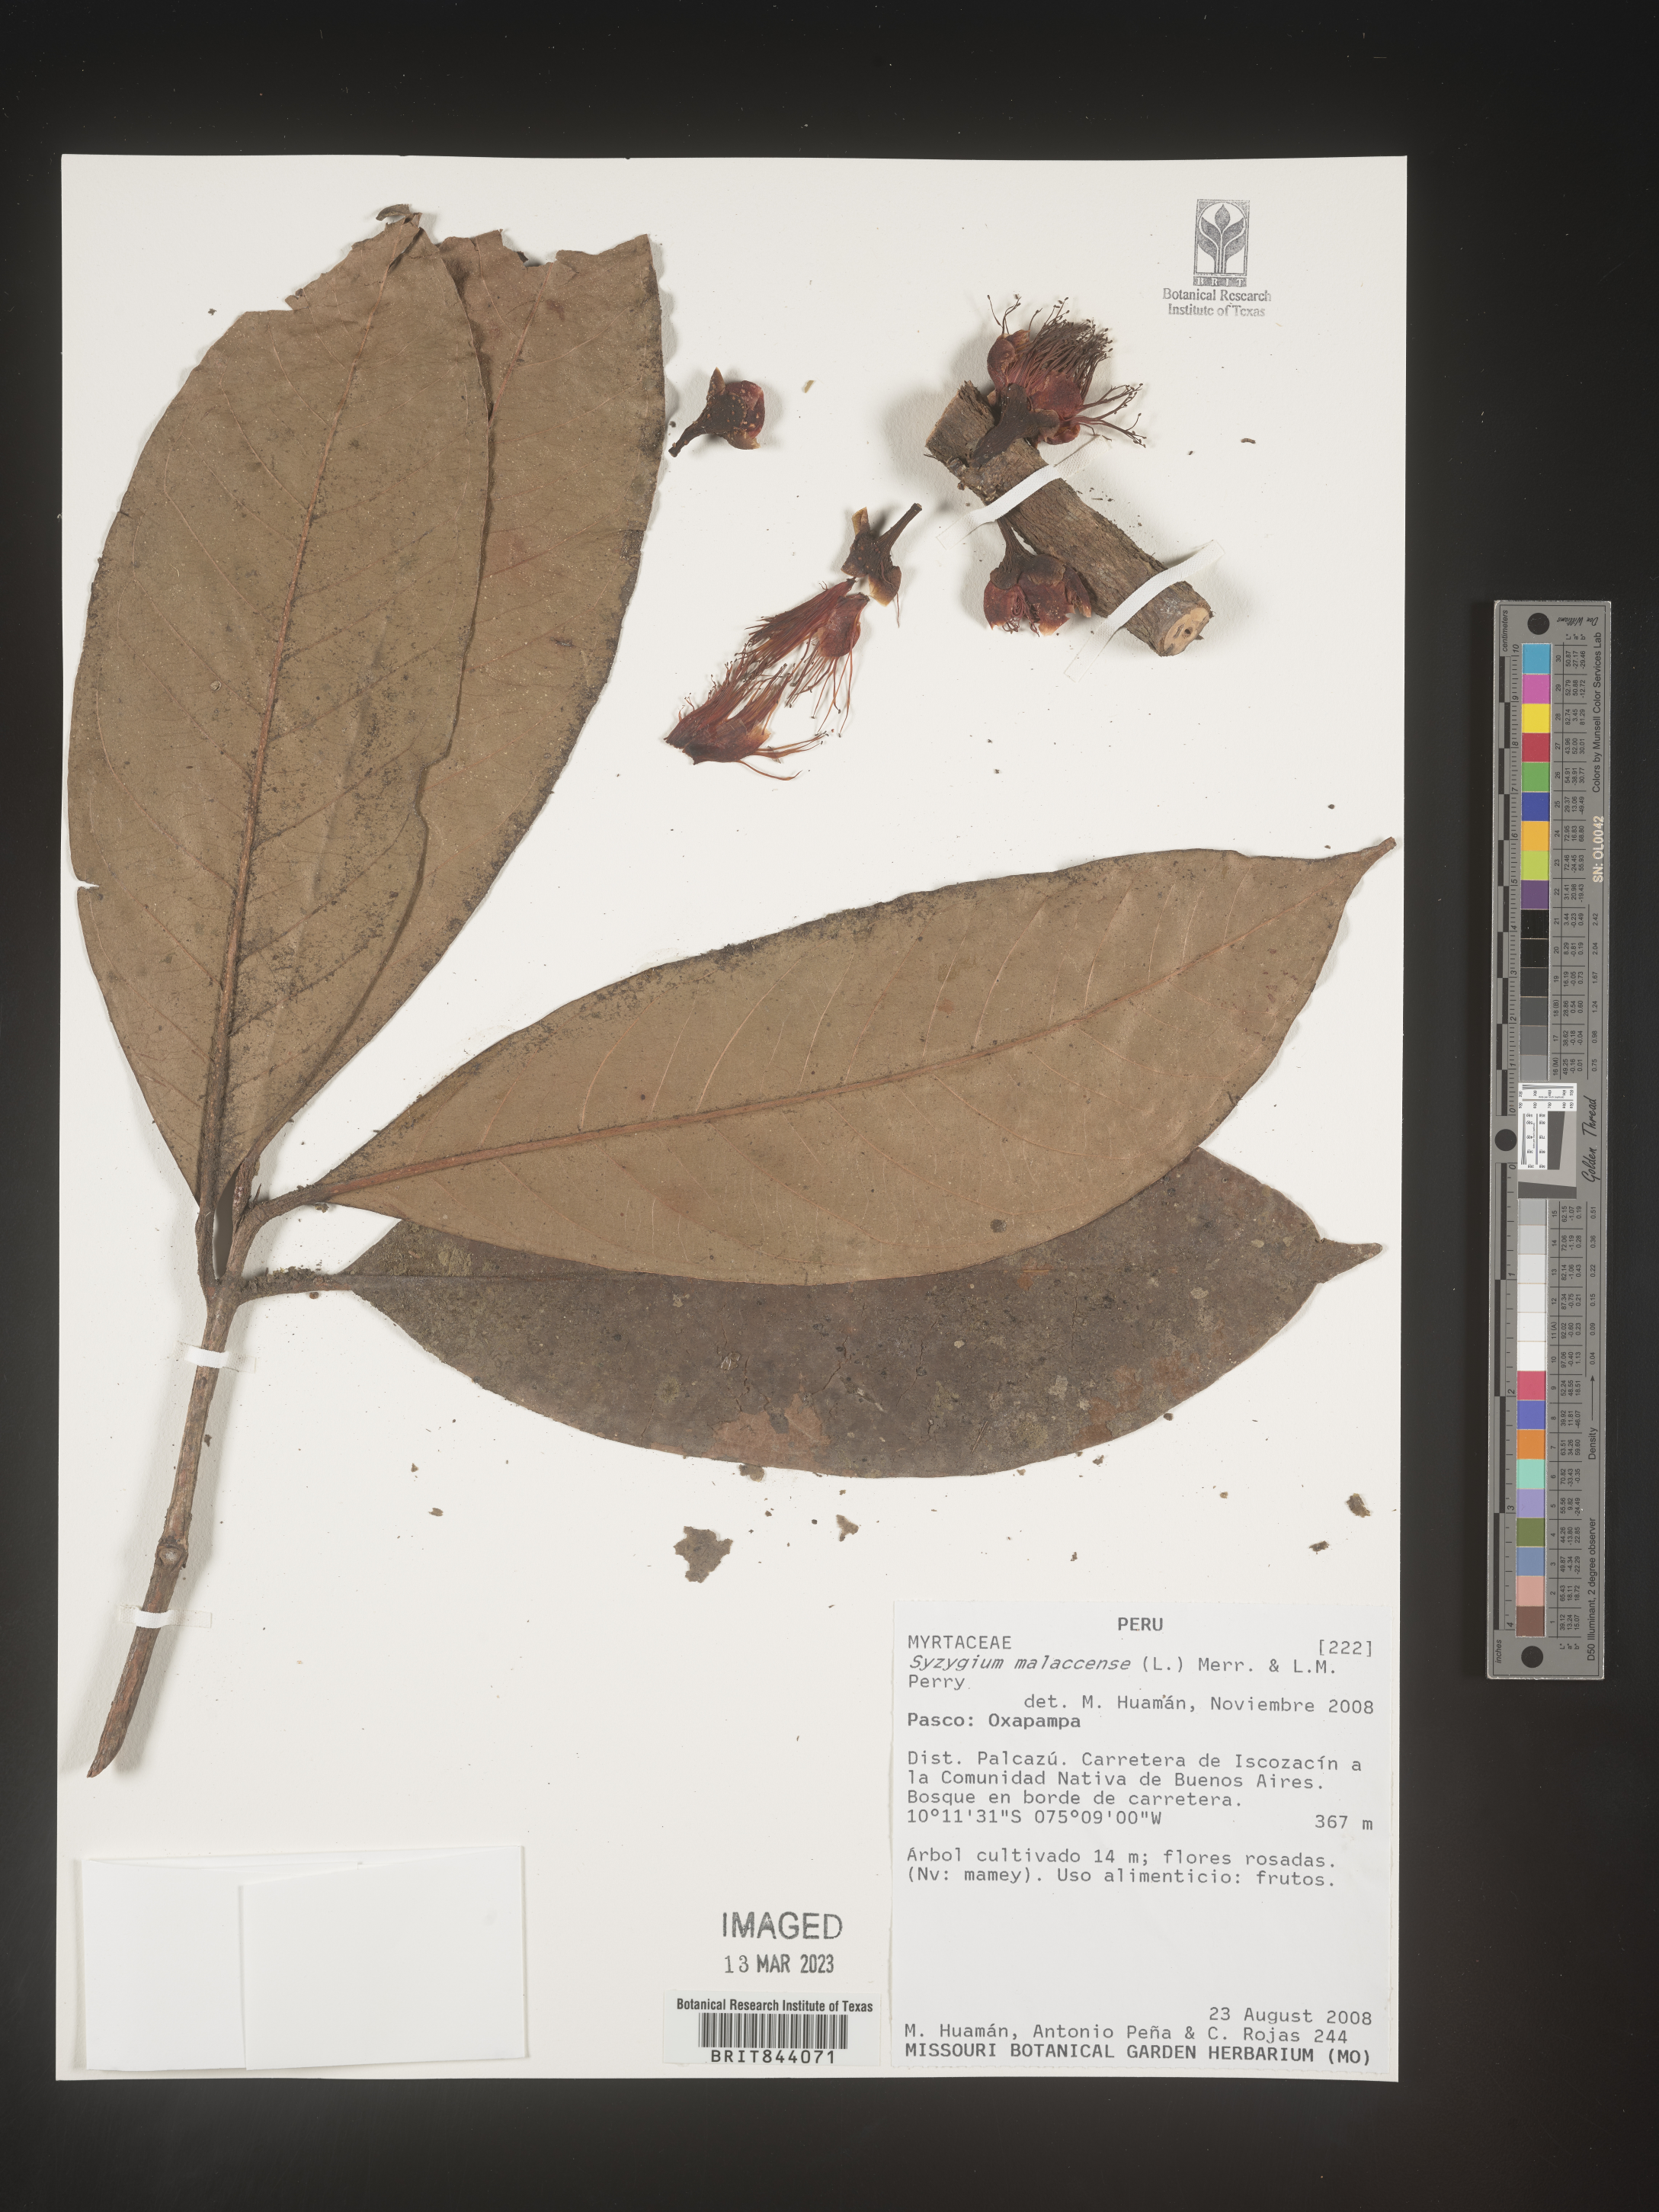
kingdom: Plantae
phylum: Tracheophyta
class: Magnoliopsida
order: Myrtales
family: Myrtaceae
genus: Syzygium
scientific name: Syzygium malaccense
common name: Malaysian apple
